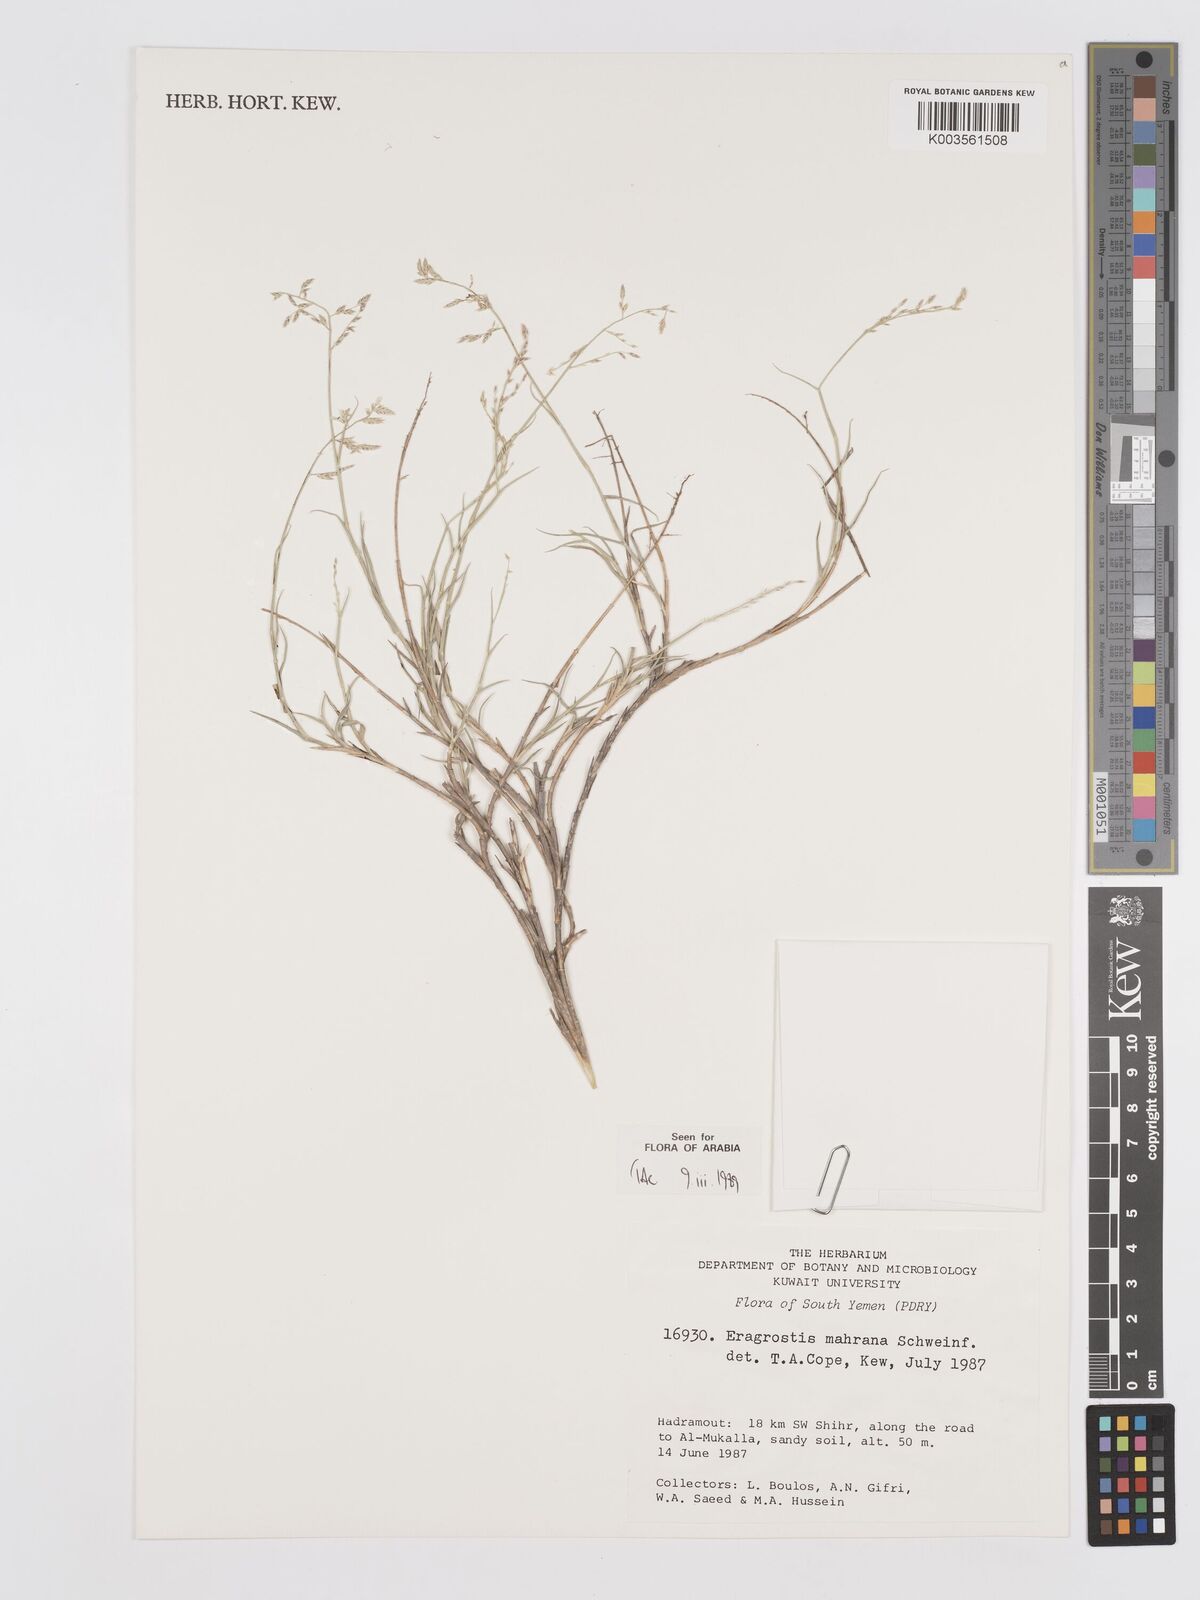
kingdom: Plantae
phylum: Tracheophyta
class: Liliopsida
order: Poales
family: Poaceae
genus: Eragrostis
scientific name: Eragrostis mahrana
